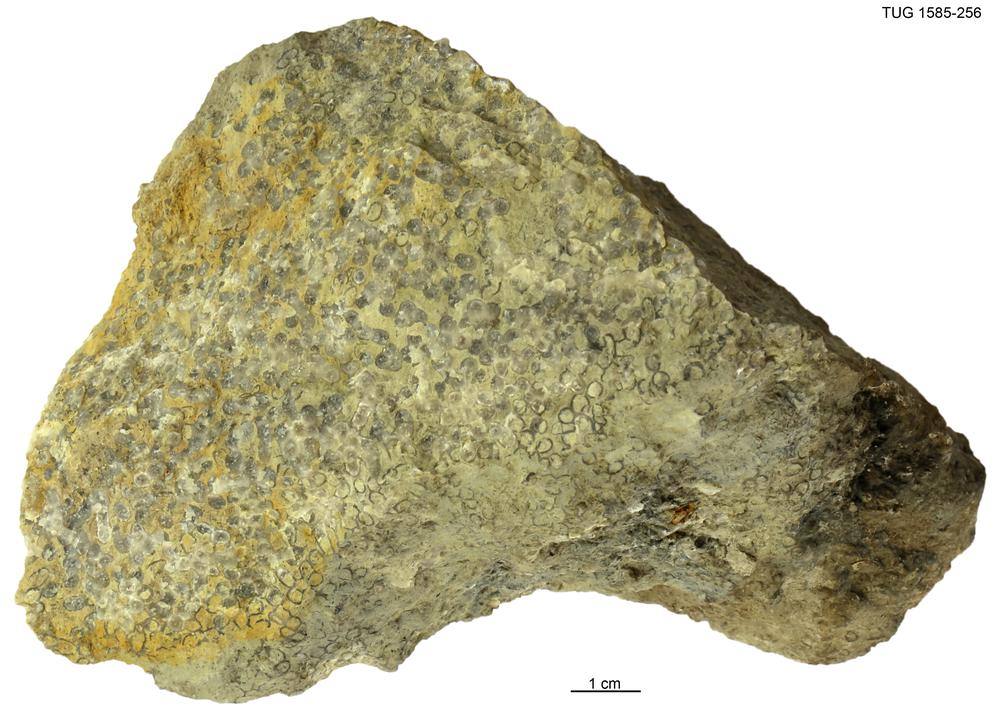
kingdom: Animalia
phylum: Cnidaria
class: Anthozoa
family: Auloporidae
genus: Eofletcheria
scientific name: Eofletcheria orvikui
